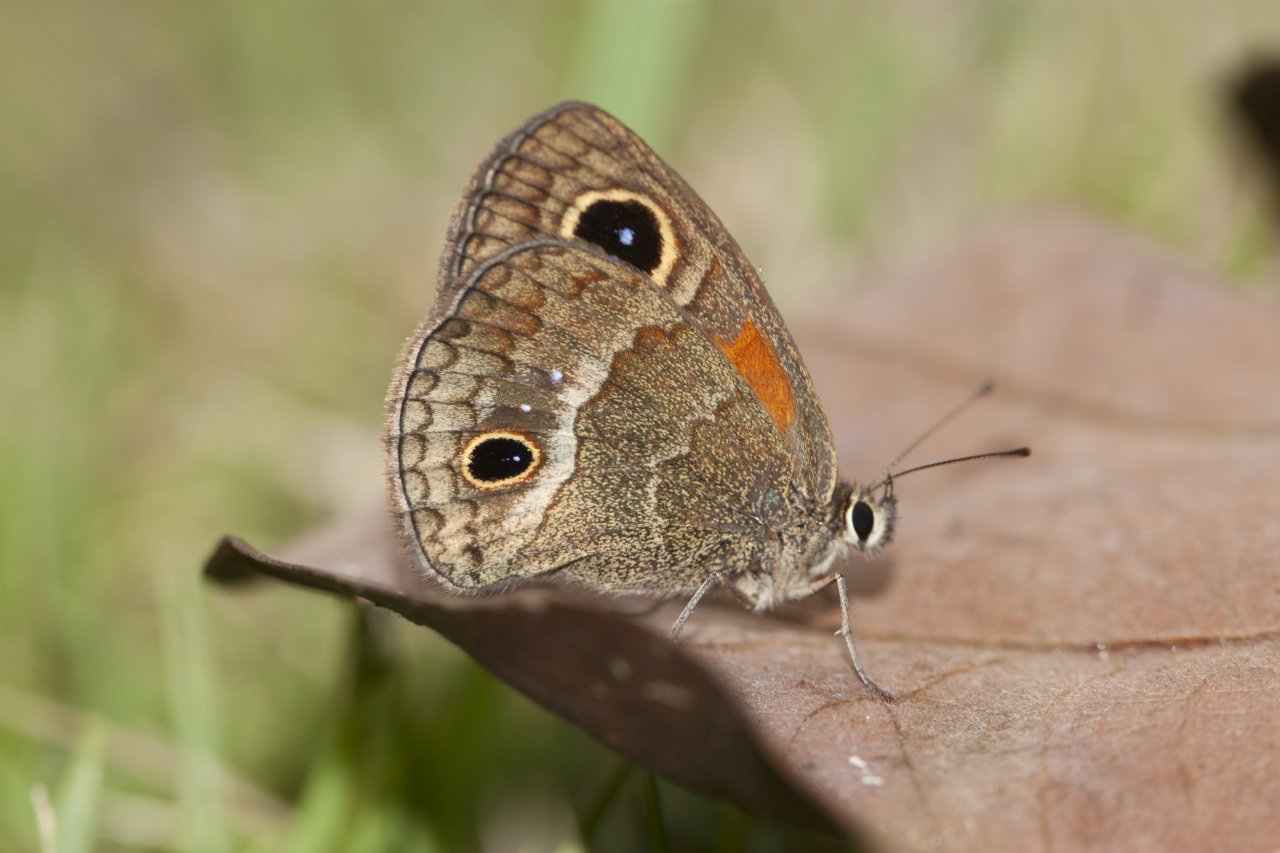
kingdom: Animalia
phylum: Arthropoda
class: Insecta
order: Lepidoptera
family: Nymphalidae
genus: Calisto
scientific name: Calisto obscura
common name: Obscure Calisto
